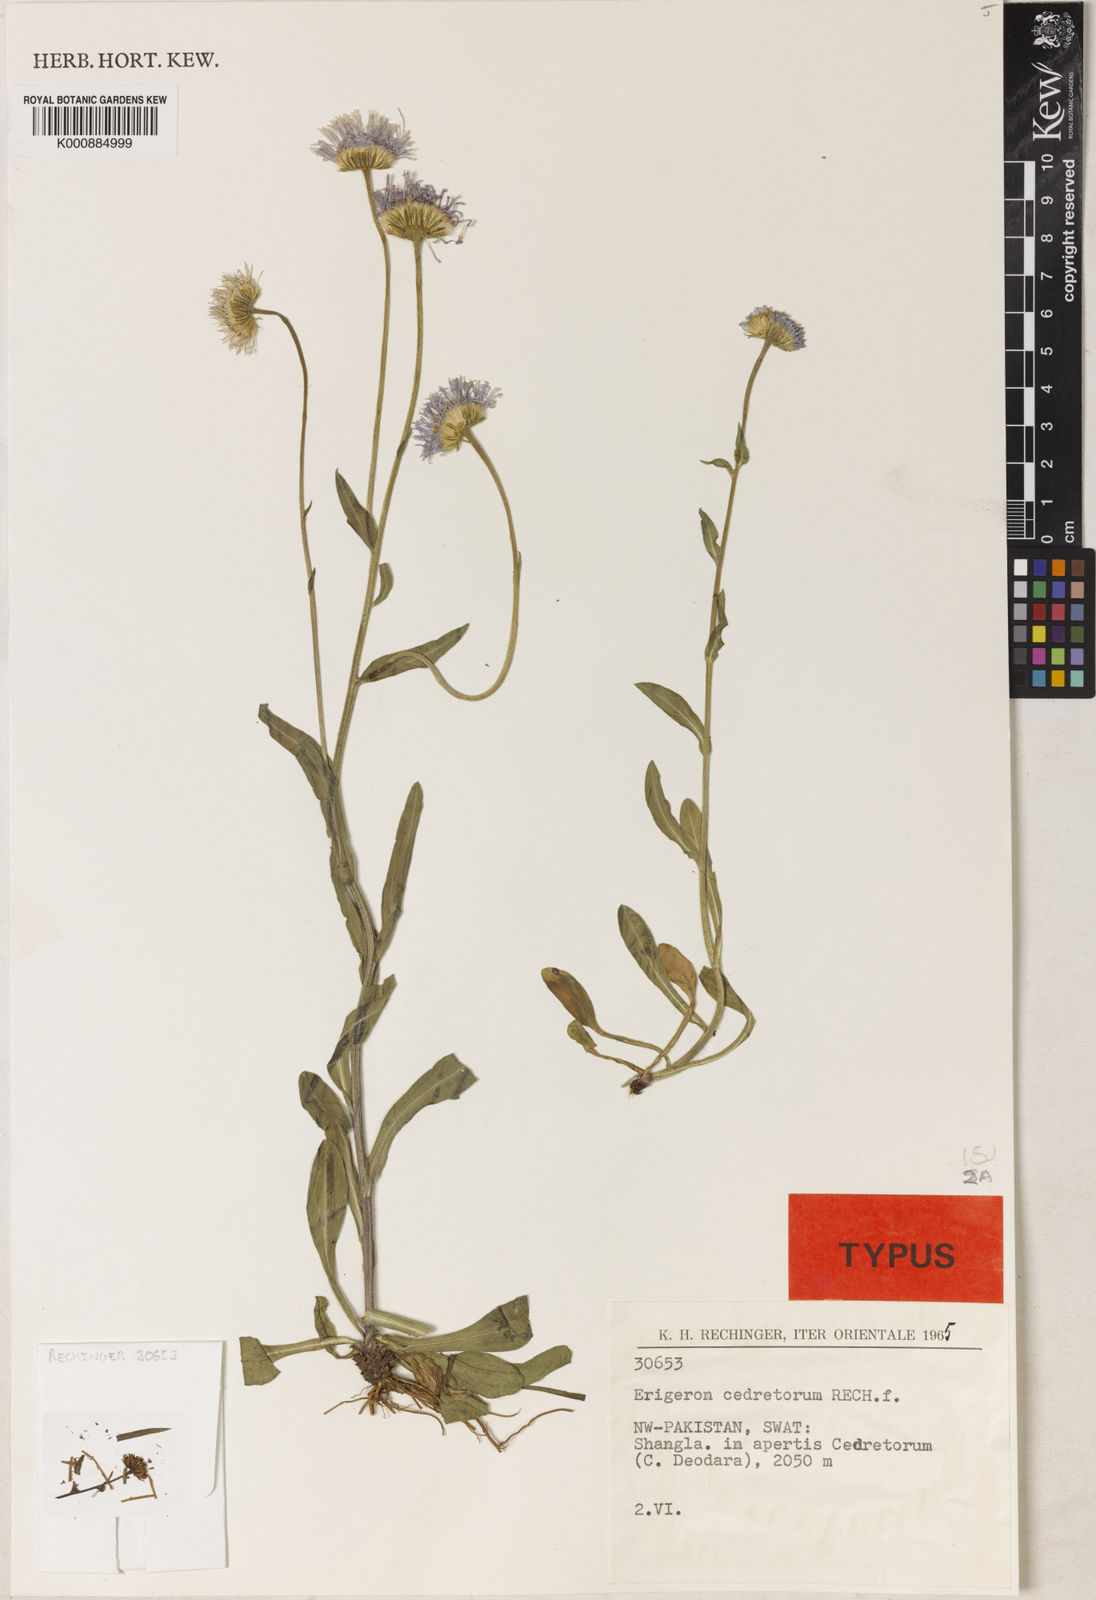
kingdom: Plantae
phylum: Tracheophyta
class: Magnoliopsida
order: Asterales
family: Asteraceae
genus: Erigeron
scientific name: Erigeron
